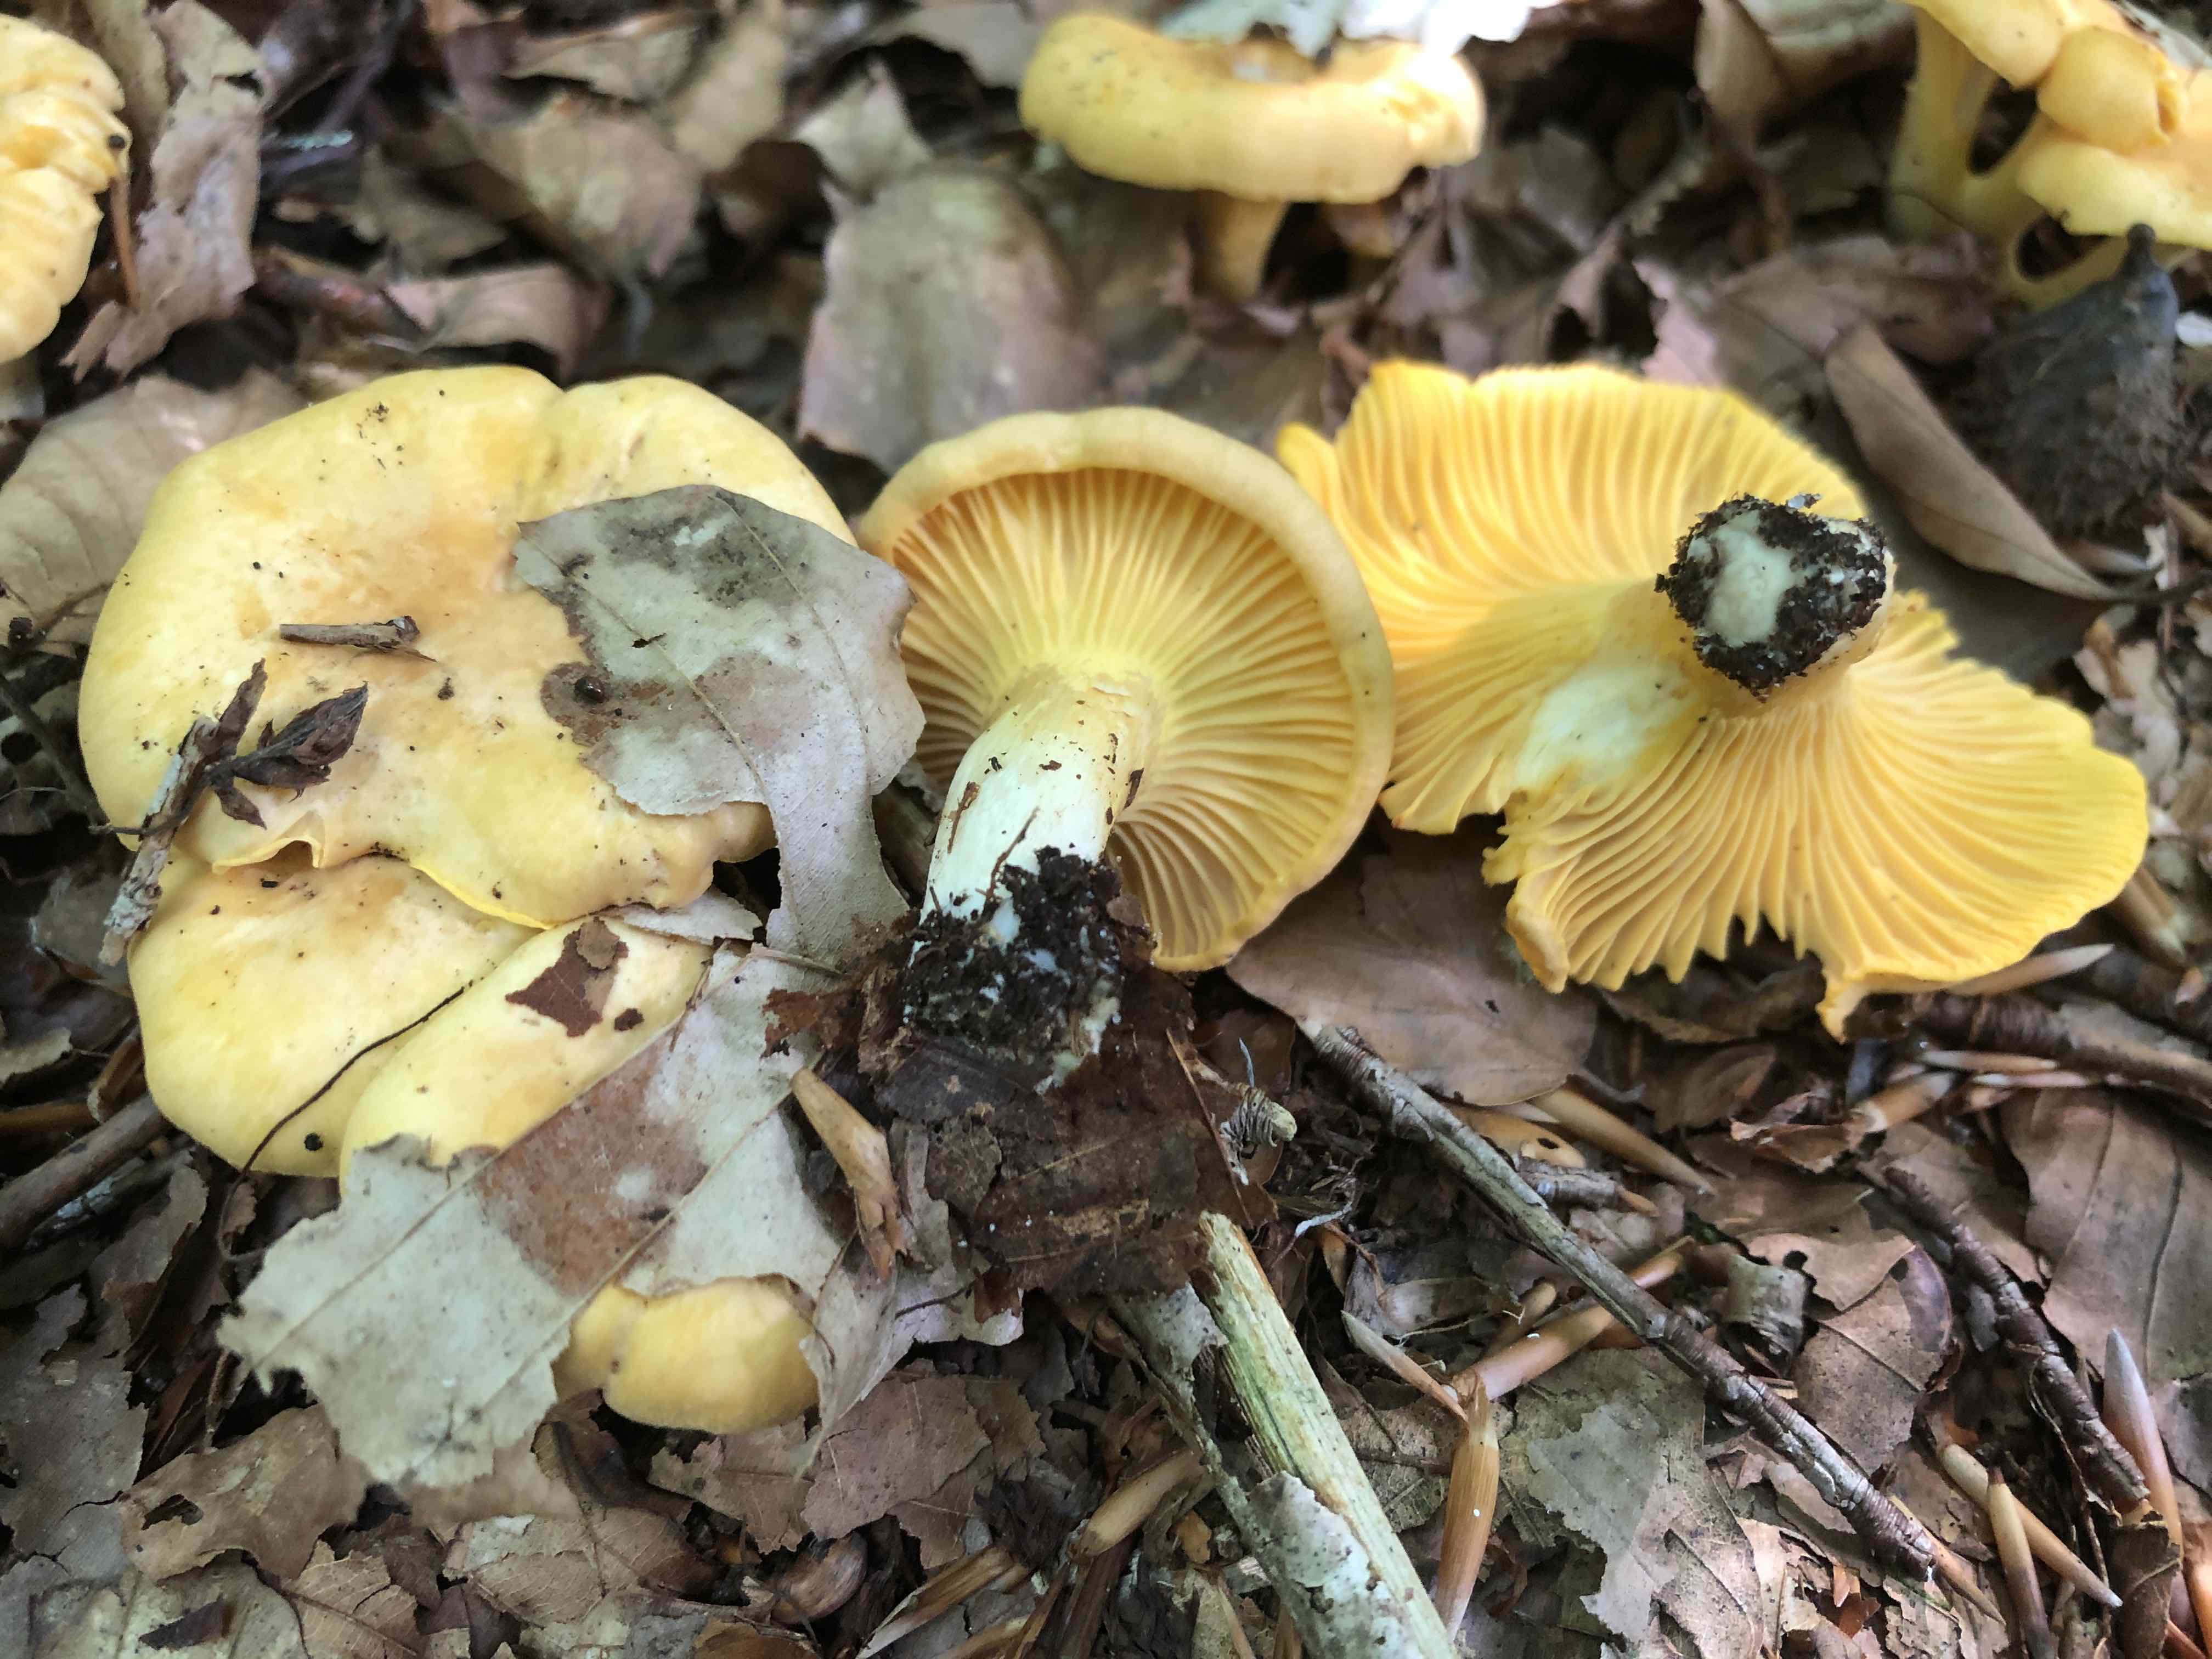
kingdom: Fungi
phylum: Basidiomycota
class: Agaricomycetes
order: Cantharellales
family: Hydnaceae
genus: Cantharellus
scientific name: Cantharellus cibarius
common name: almindelig kantarel
